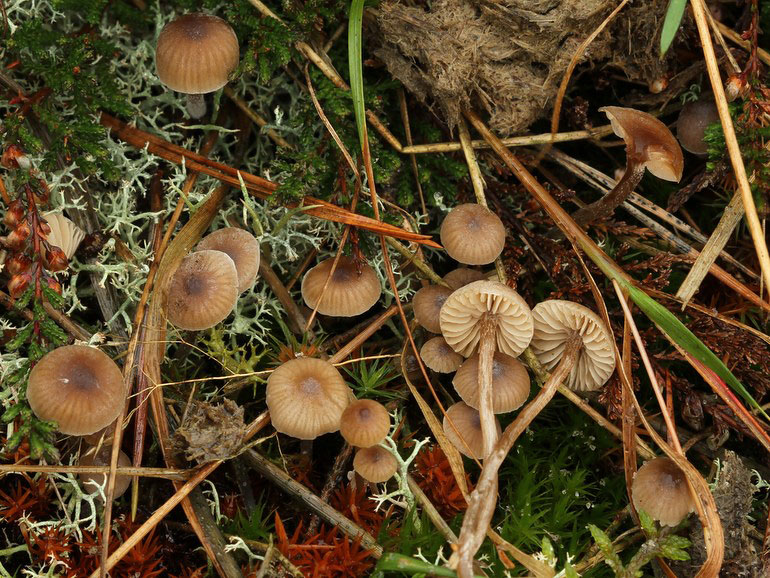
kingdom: Fungi
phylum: Basidiomycota
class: Agaricomycetes
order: Agaricales
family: Lyophyllaceae
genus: Sagaranella
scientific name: Sagaranella tylicolor
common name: kvælstof-gråblad
